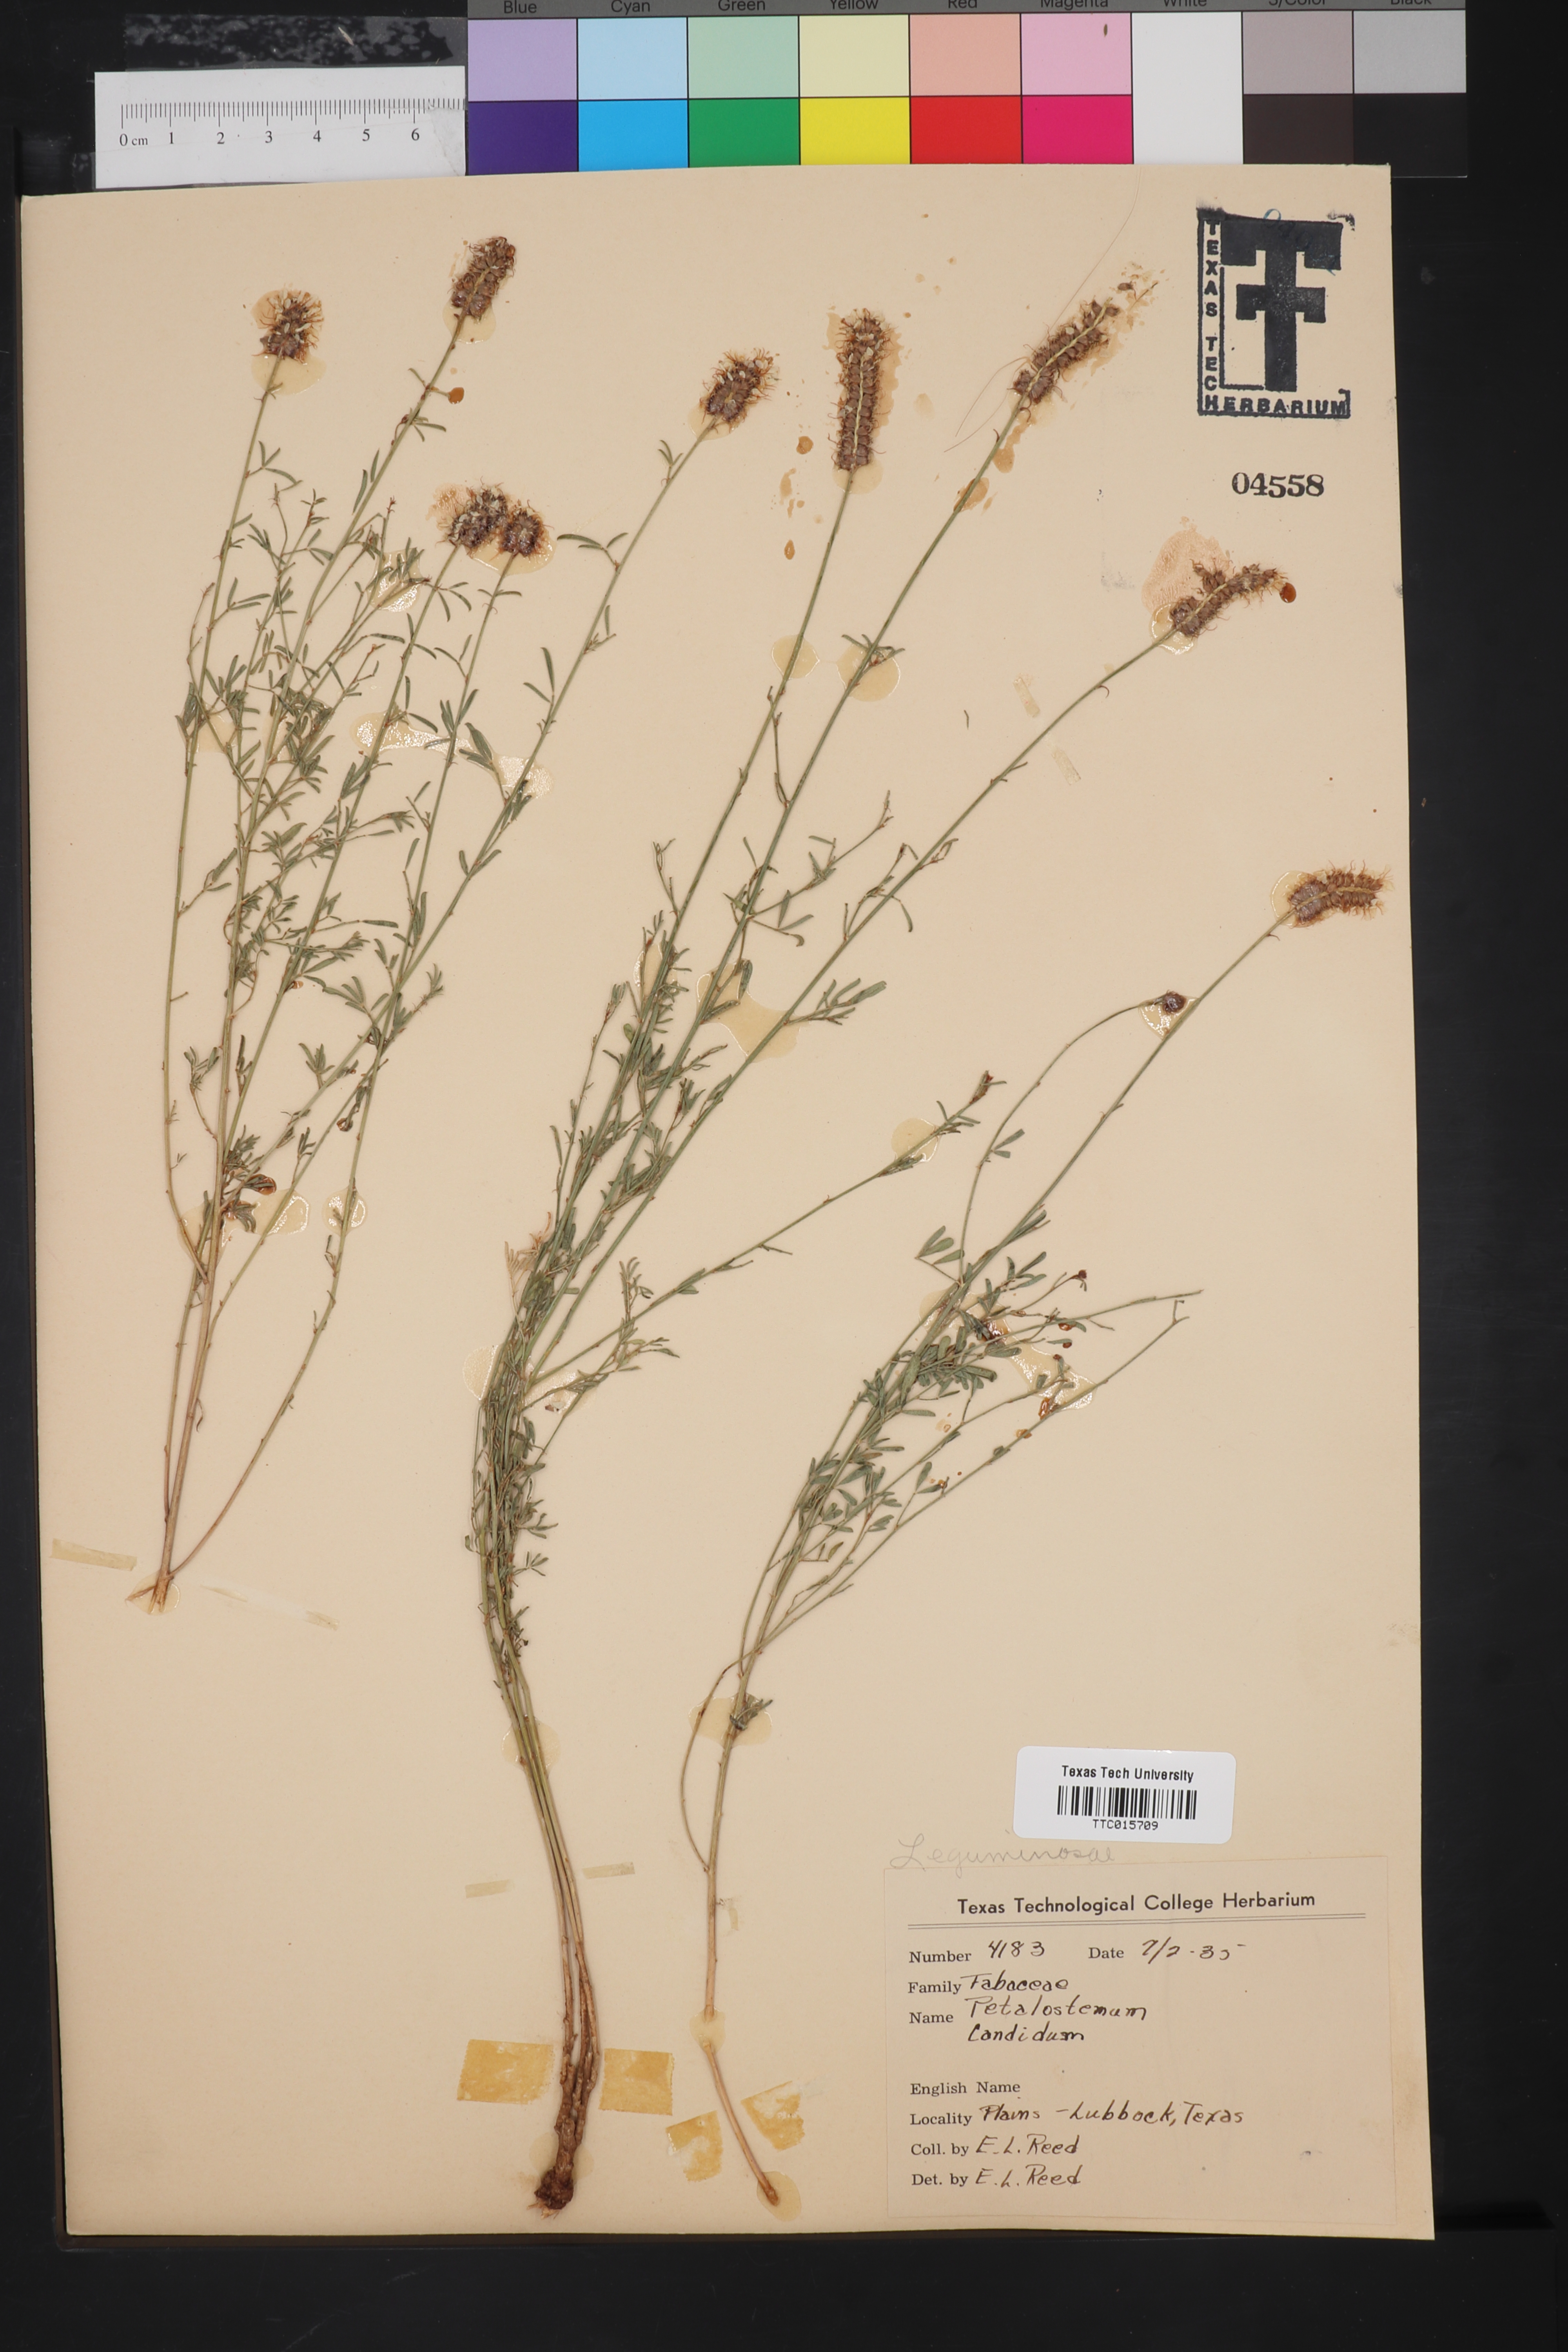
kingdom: Plantae
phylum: Tracheophyta
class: Magnoliopsida
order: Fabales
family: Fabaceae
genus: Petalostemum
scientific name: Petalostemum
